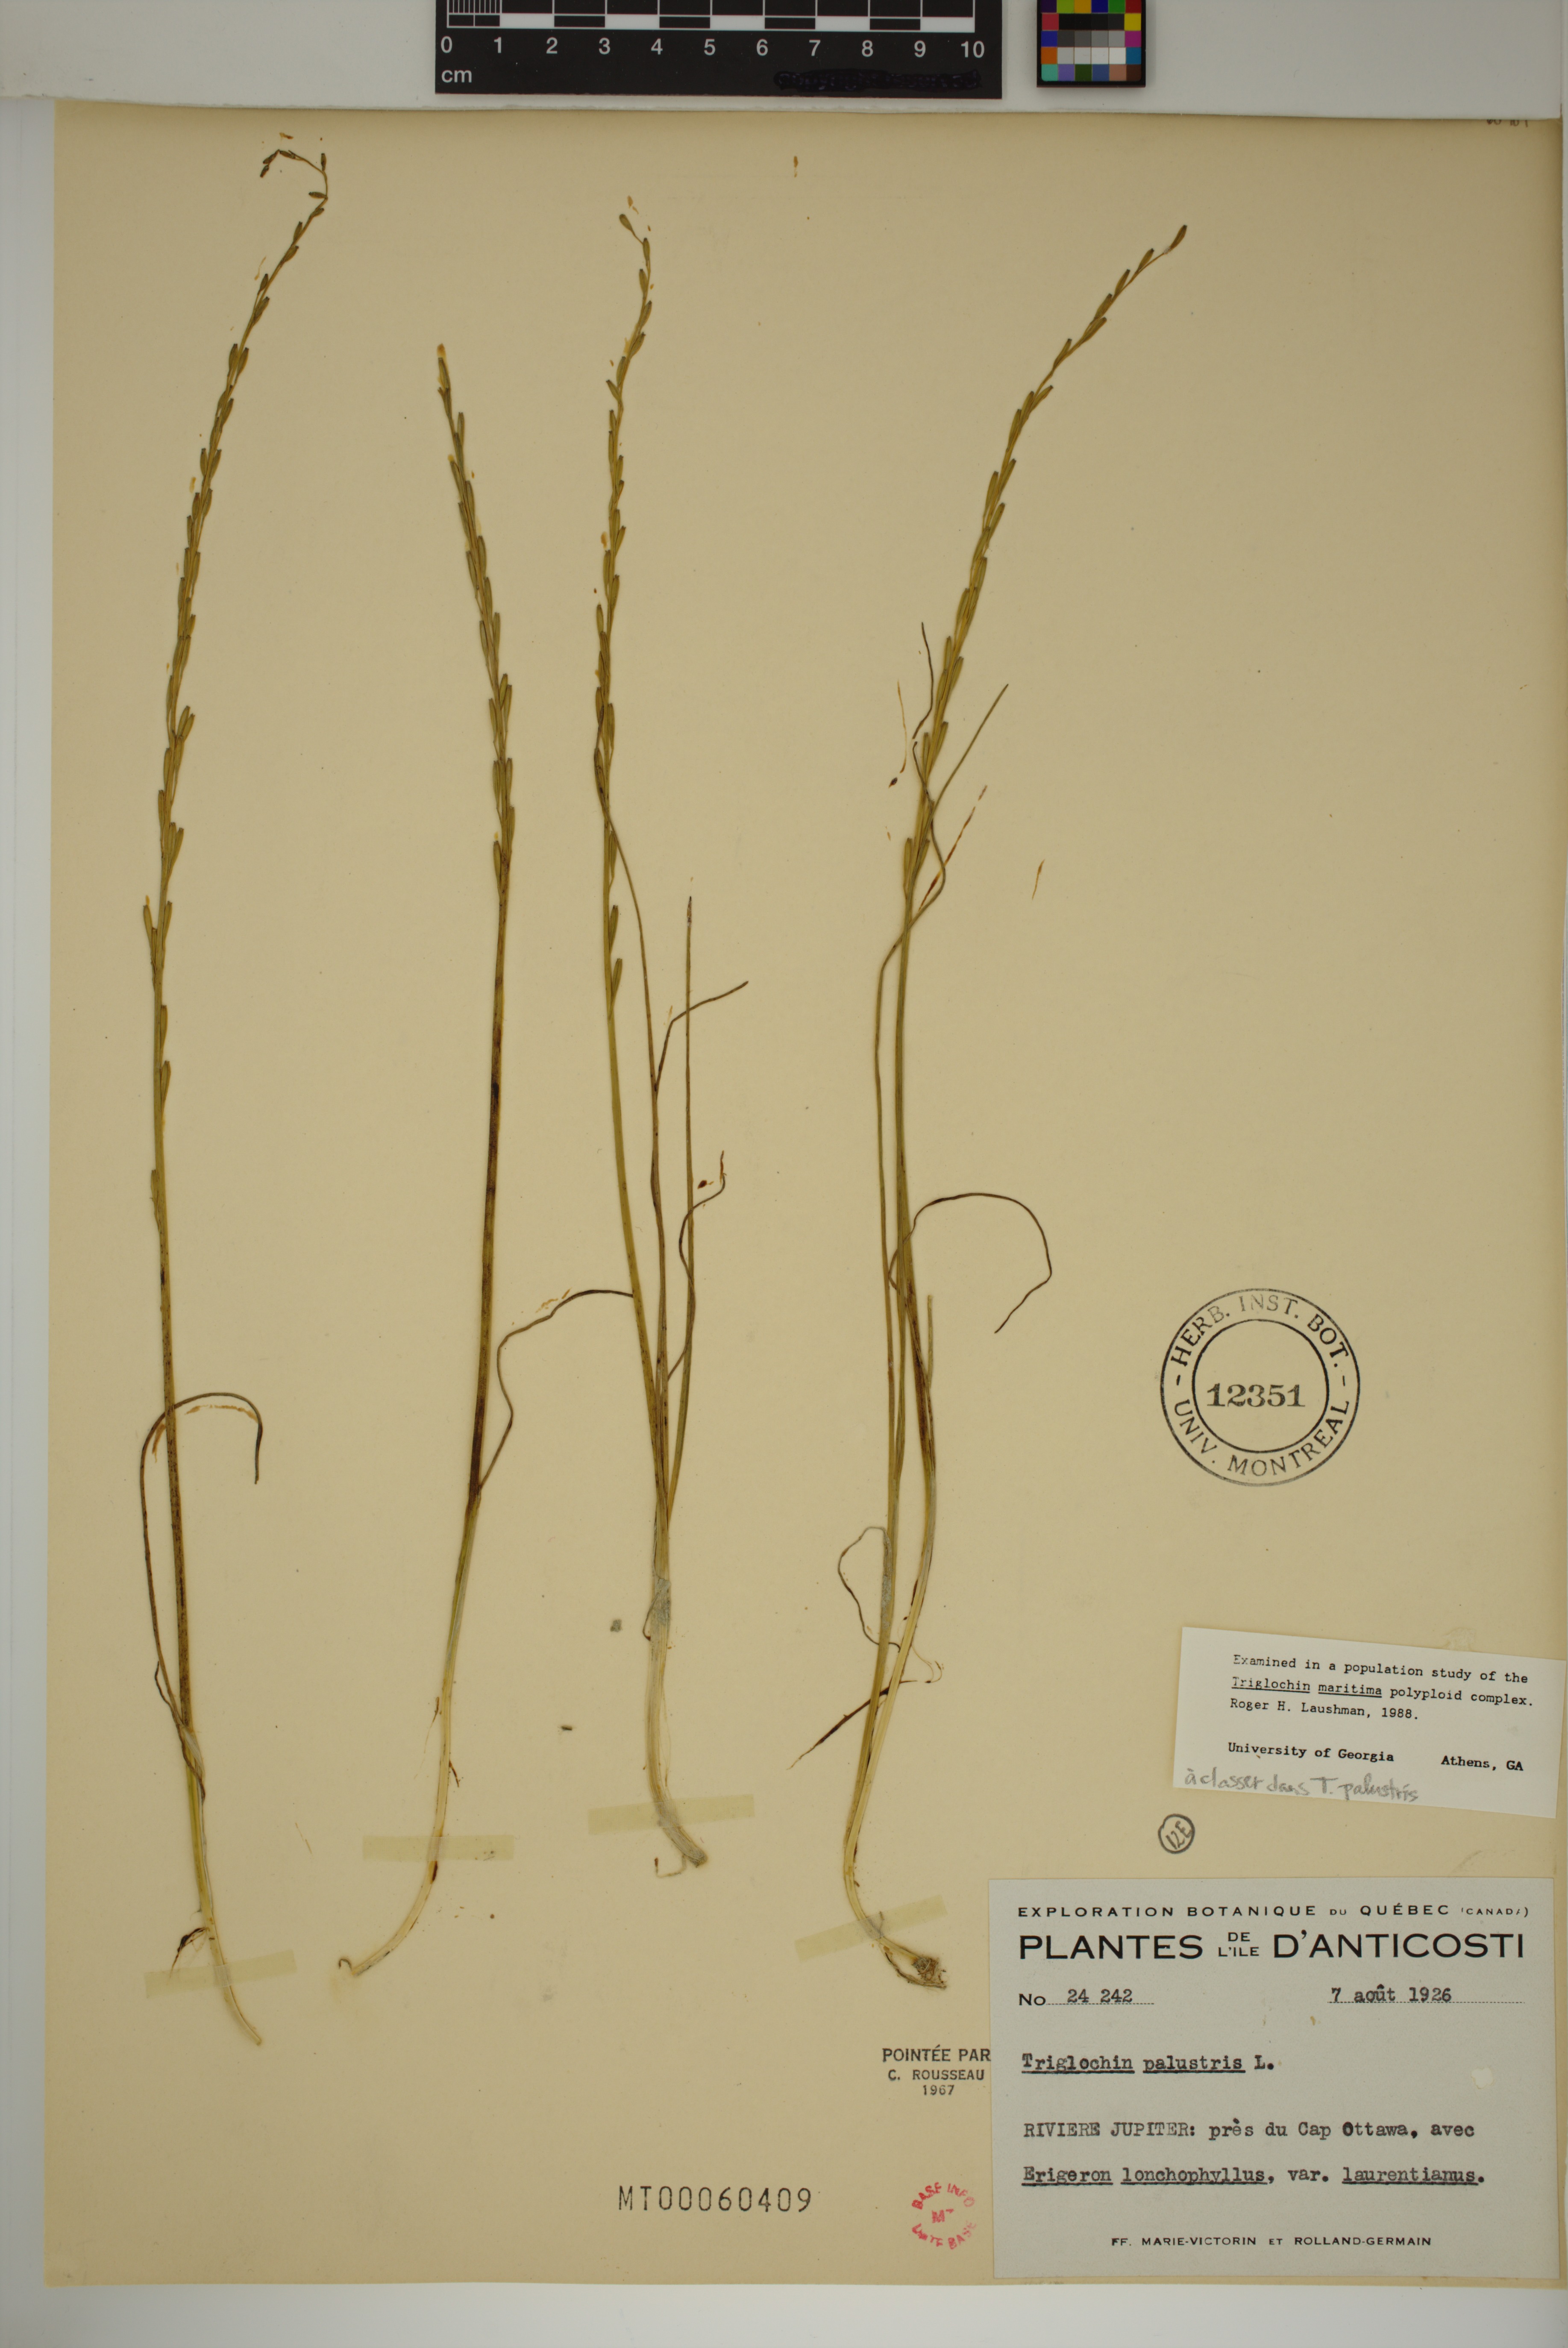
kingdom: Plantae
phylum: Tracheophyta
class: Liliopsida
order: Alismatales
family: Juncaginaceae
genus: Triglochin
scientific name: Triglochin palustris
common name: Marsh arrowgrass
